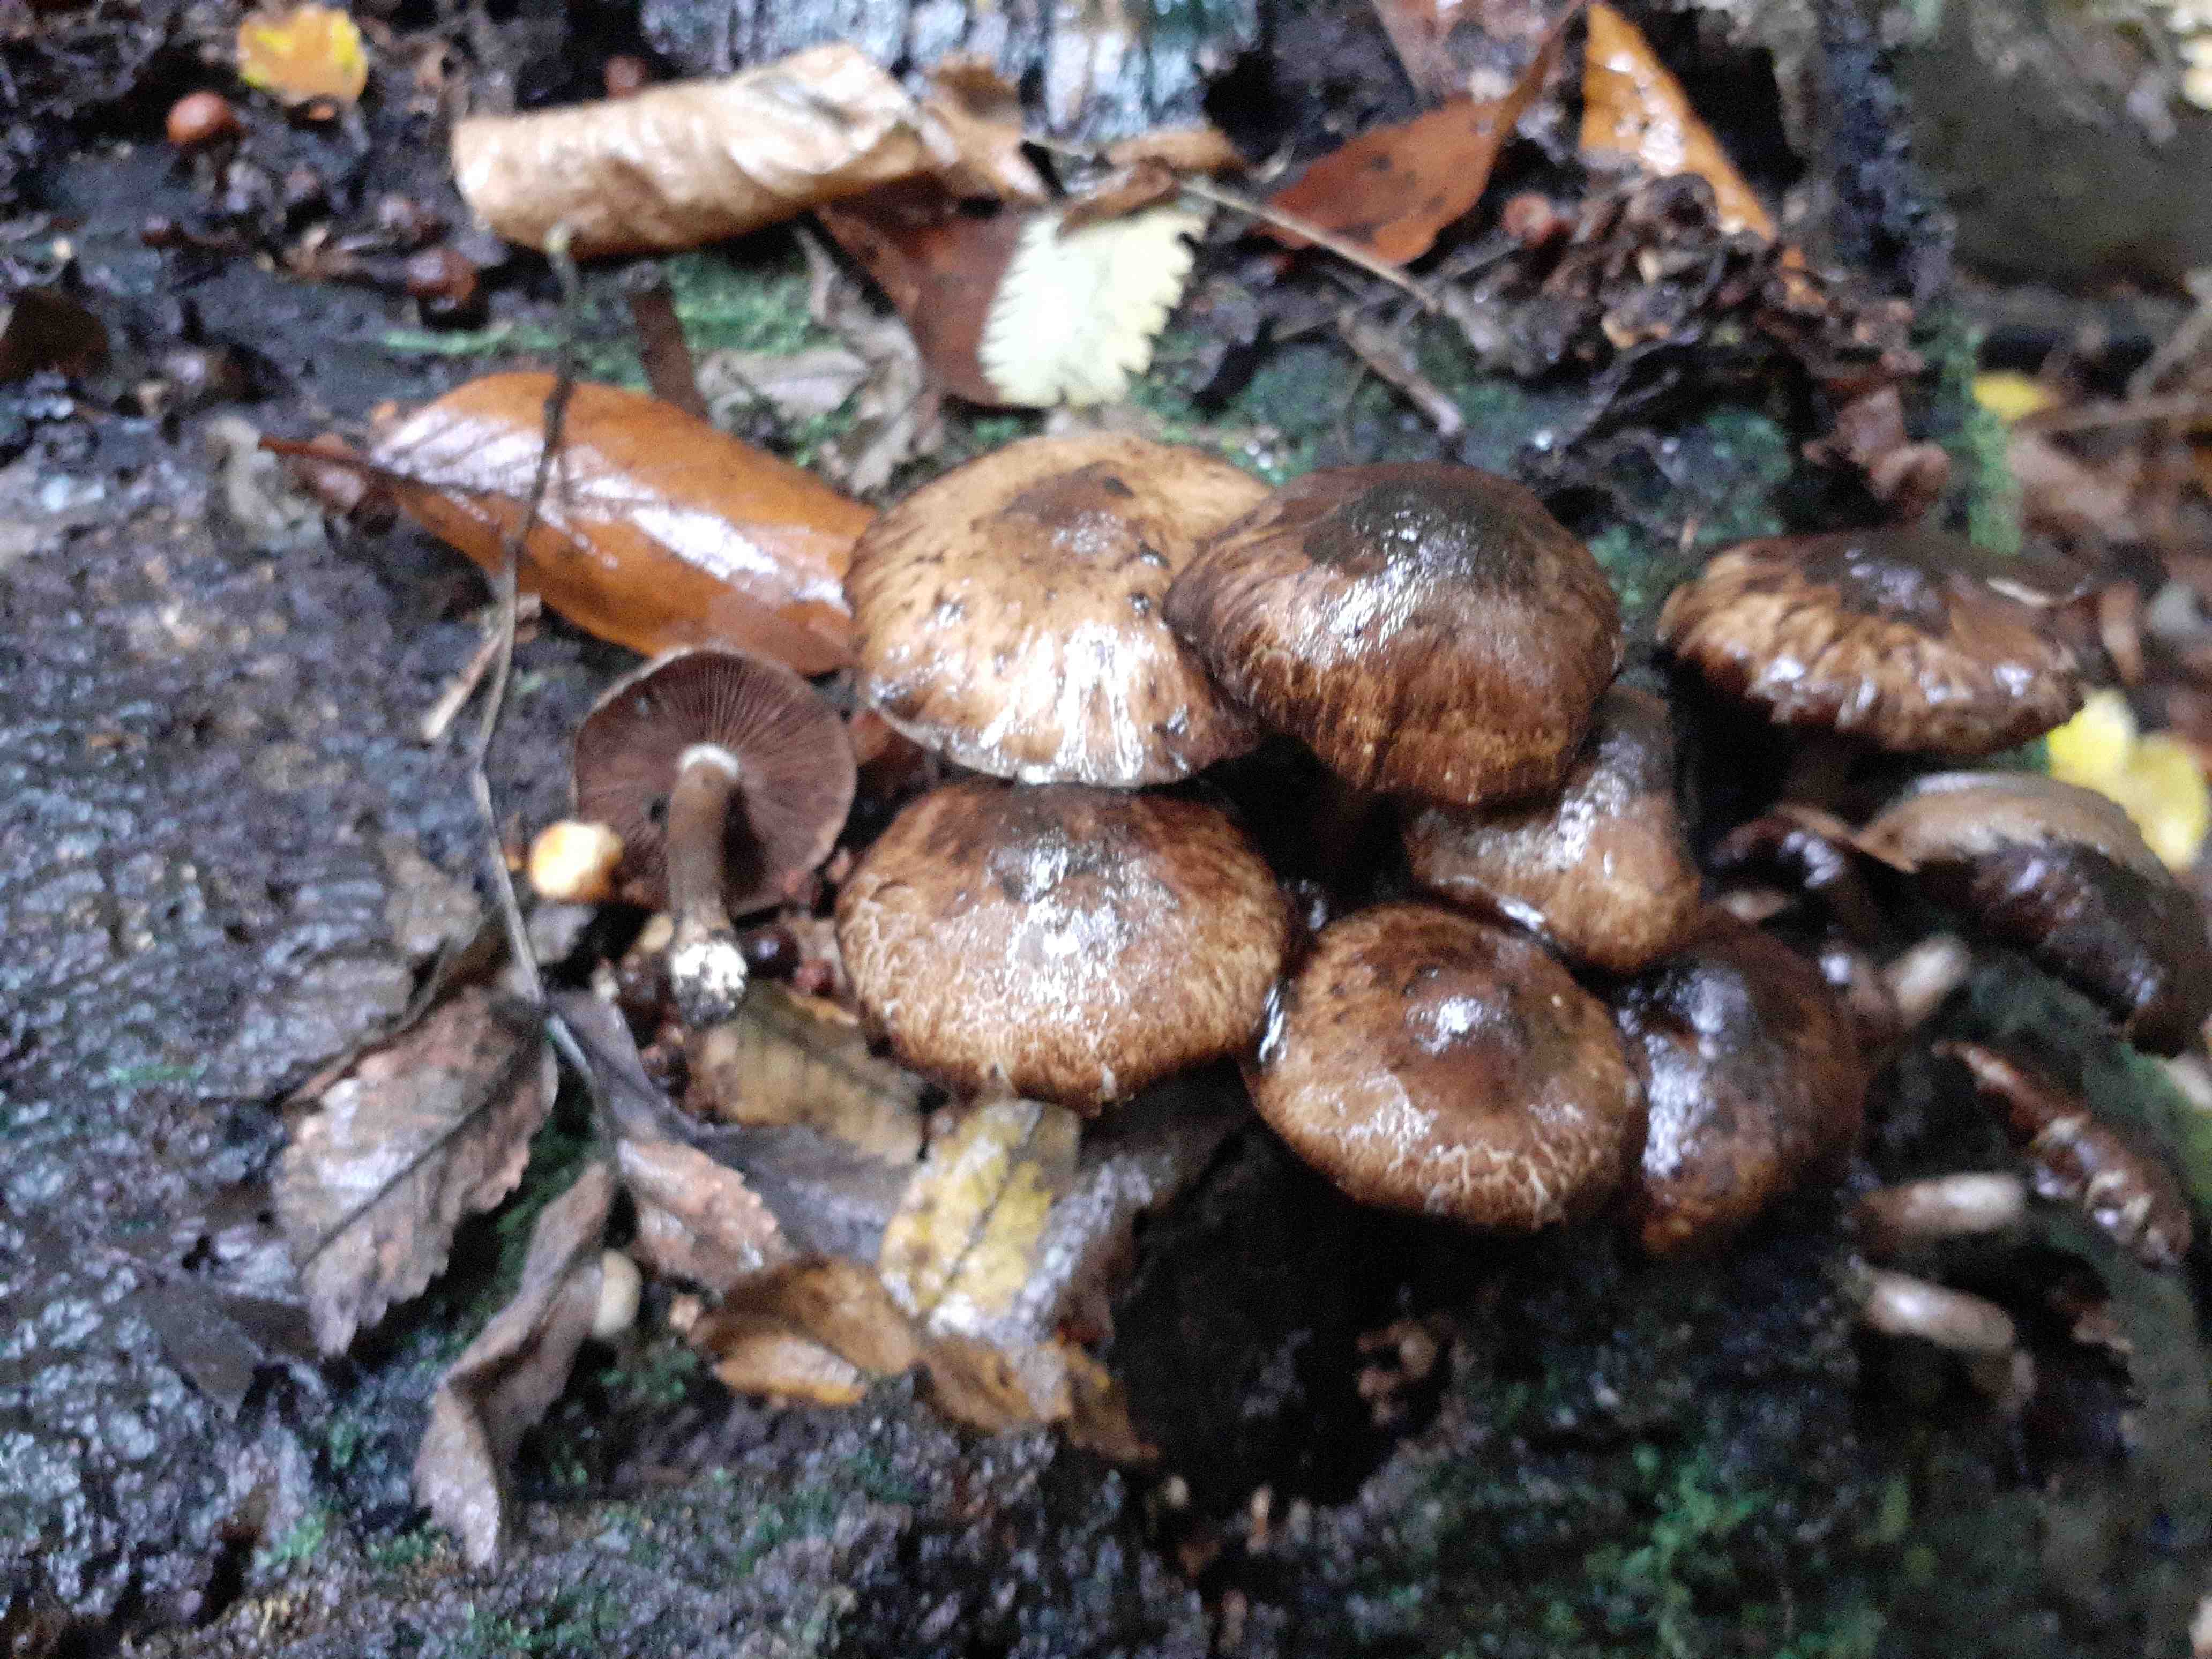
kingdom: Fungi
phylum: Basidiomycota
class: Agaricomycetes
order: Agaricales
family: Psathyrellaceae
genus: Psathyrella
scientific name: Psathyrella maculata
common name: sortskællet mørkhat
